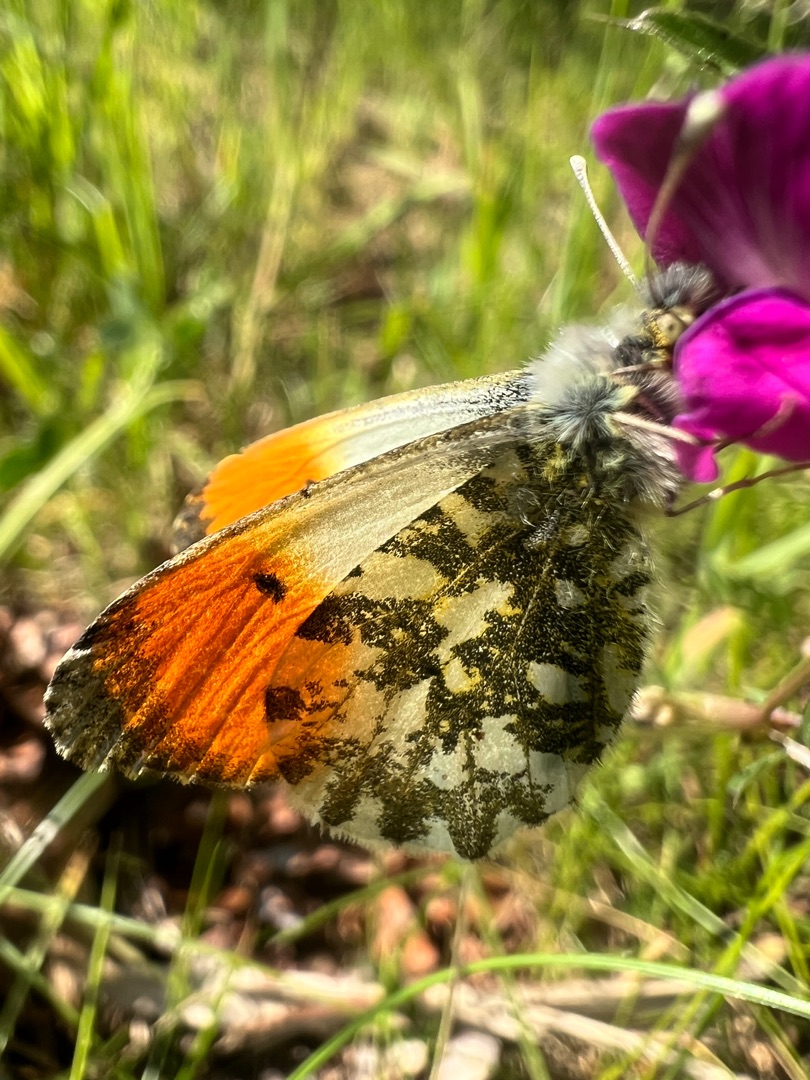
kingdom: Animalia
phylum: Arthropoda
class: Insecta
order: Lepidoptera
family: Pieridae
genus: Anthocharis
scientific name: Anthocharis cardamines
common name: Aurora
